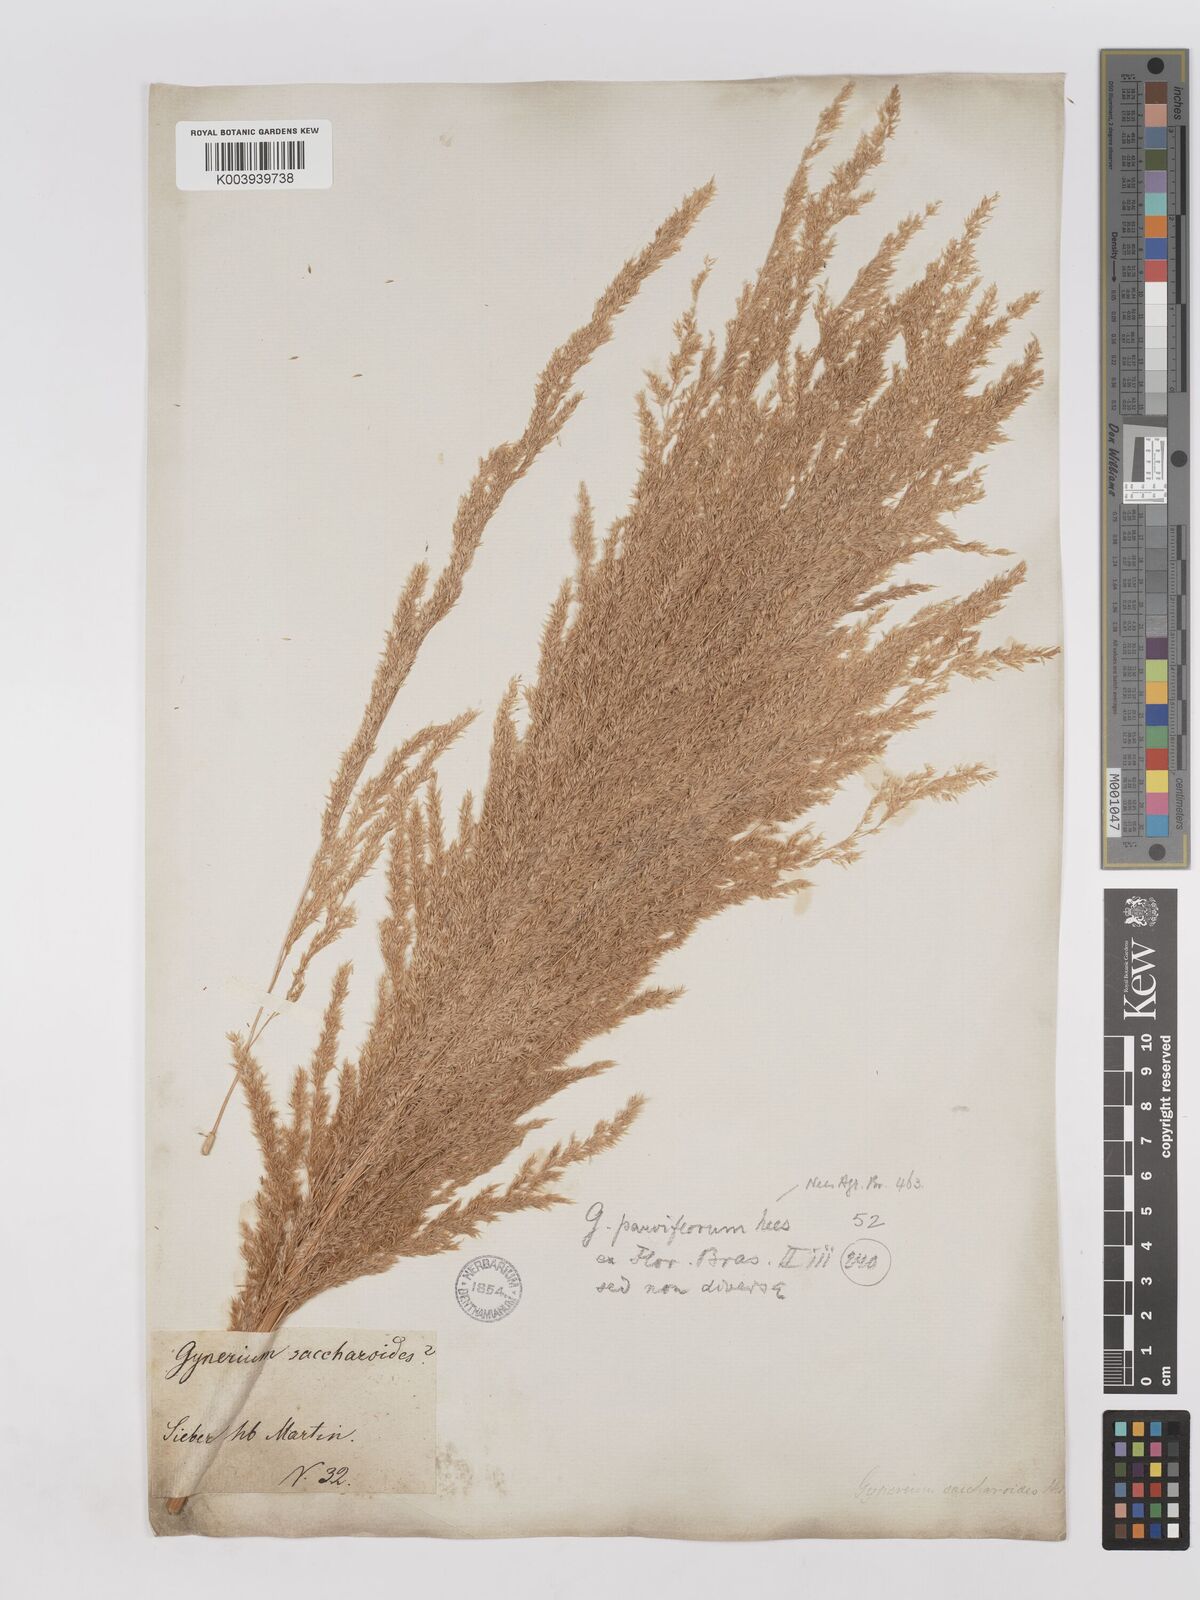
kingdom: Plantae
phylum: Tracheophyta
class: Liliopsida
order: Poales
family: Poaceae
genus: Gynerium
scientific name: Gynerium sagittatum
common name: Wild cane
